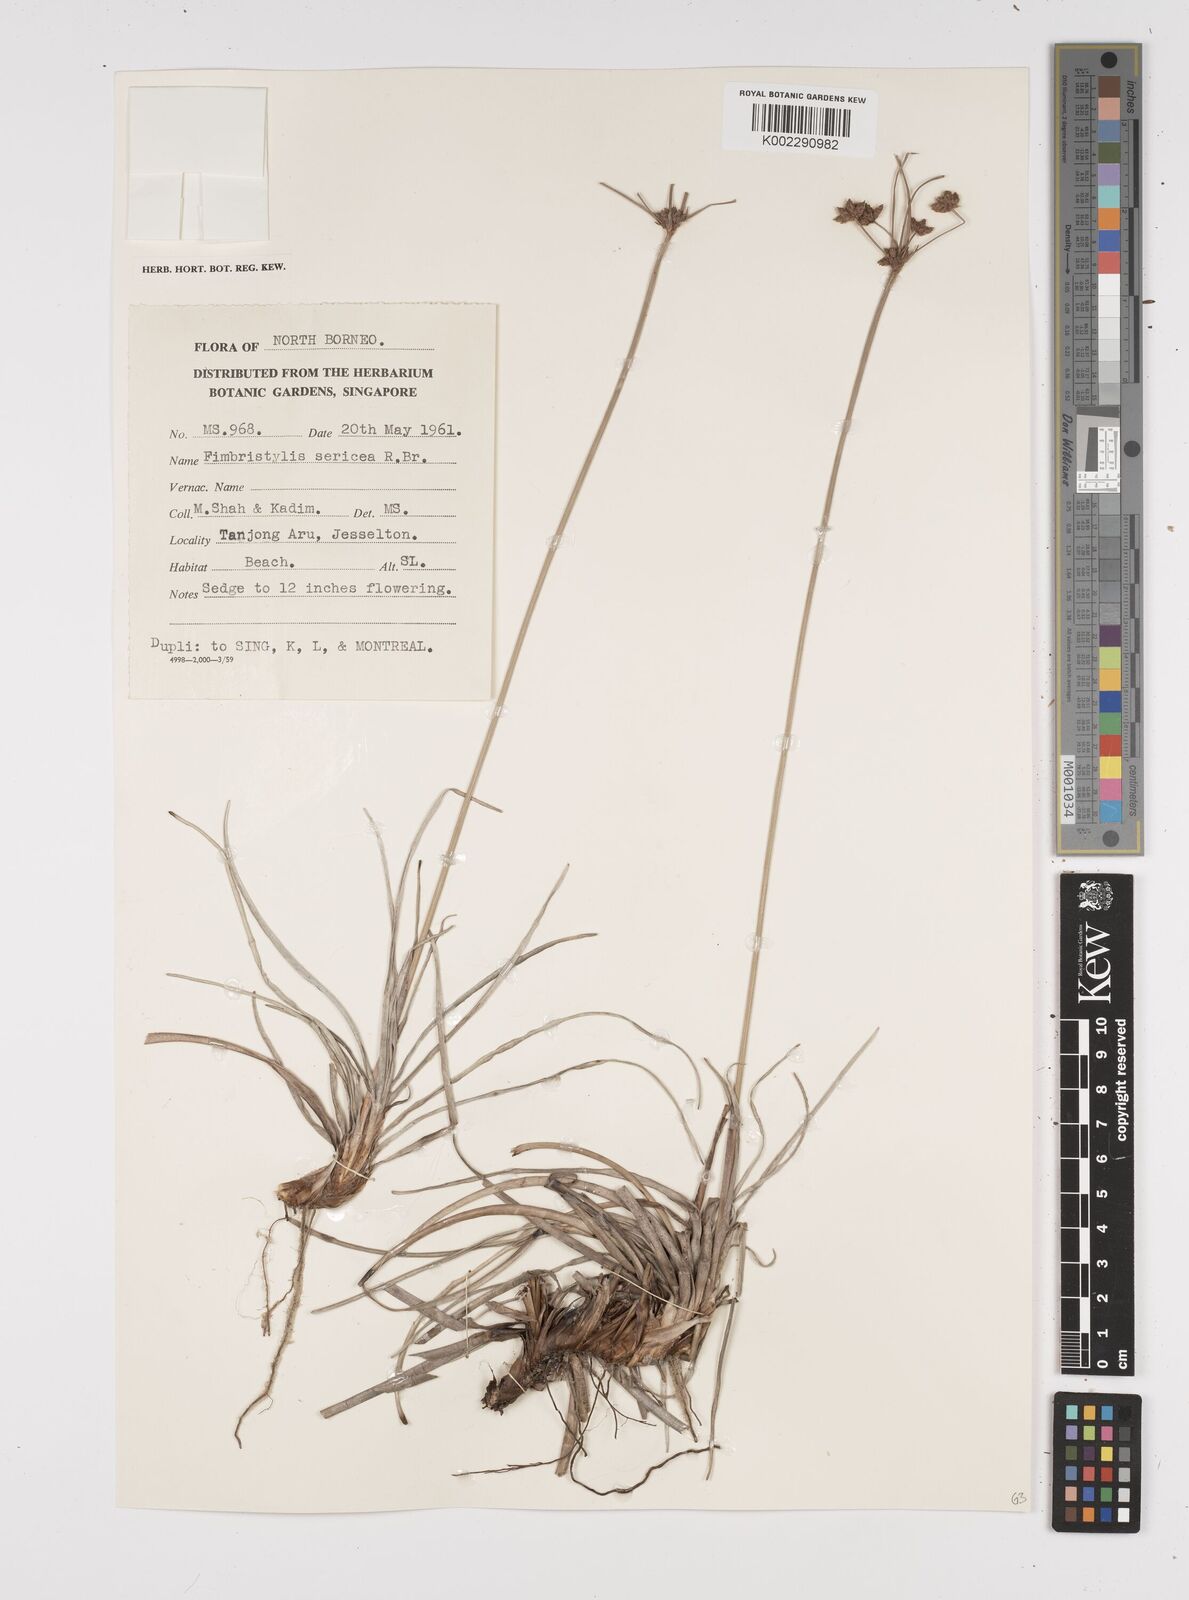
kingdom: Plantae
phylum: Tracheophyta
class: Liliopsida
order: Poales
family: Cyperaceae
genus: Fimbristylis
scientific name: Fimbristylis sericea
